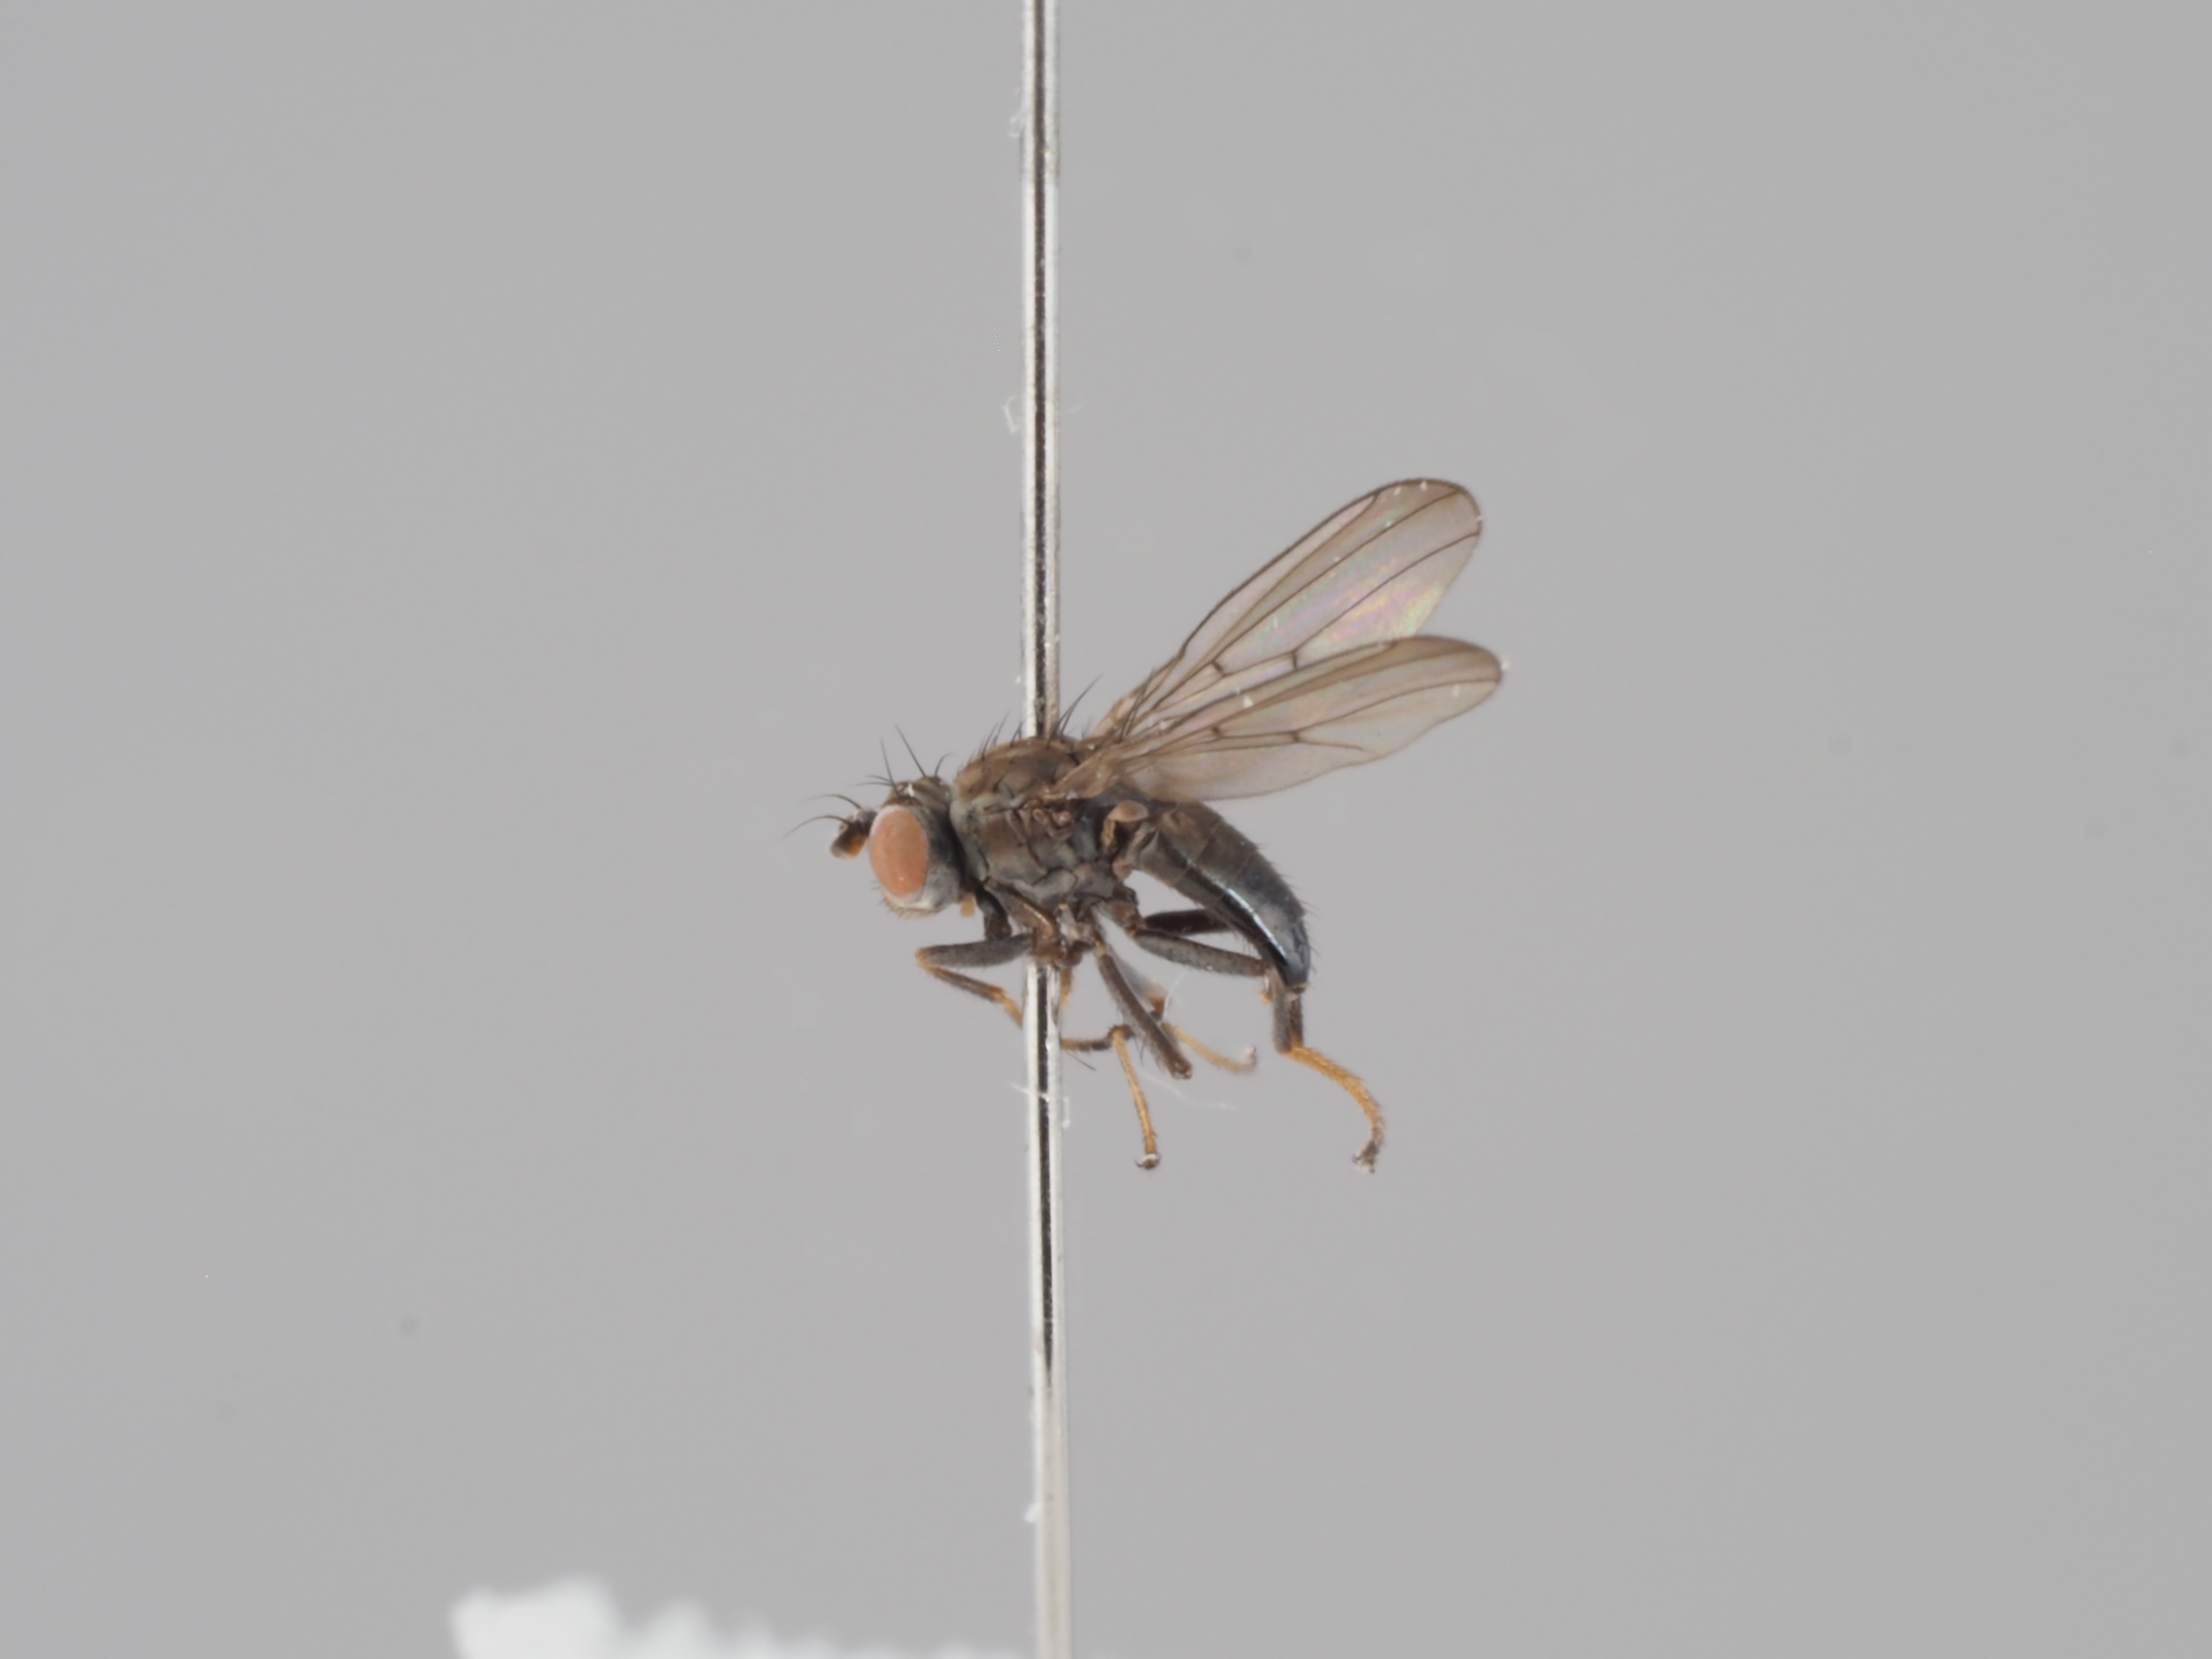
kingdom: Animalia
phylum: Arthropoda
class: Insecta
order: Diptera
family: Ephydridae
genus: Philygria
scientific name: Philygria vittipennis
